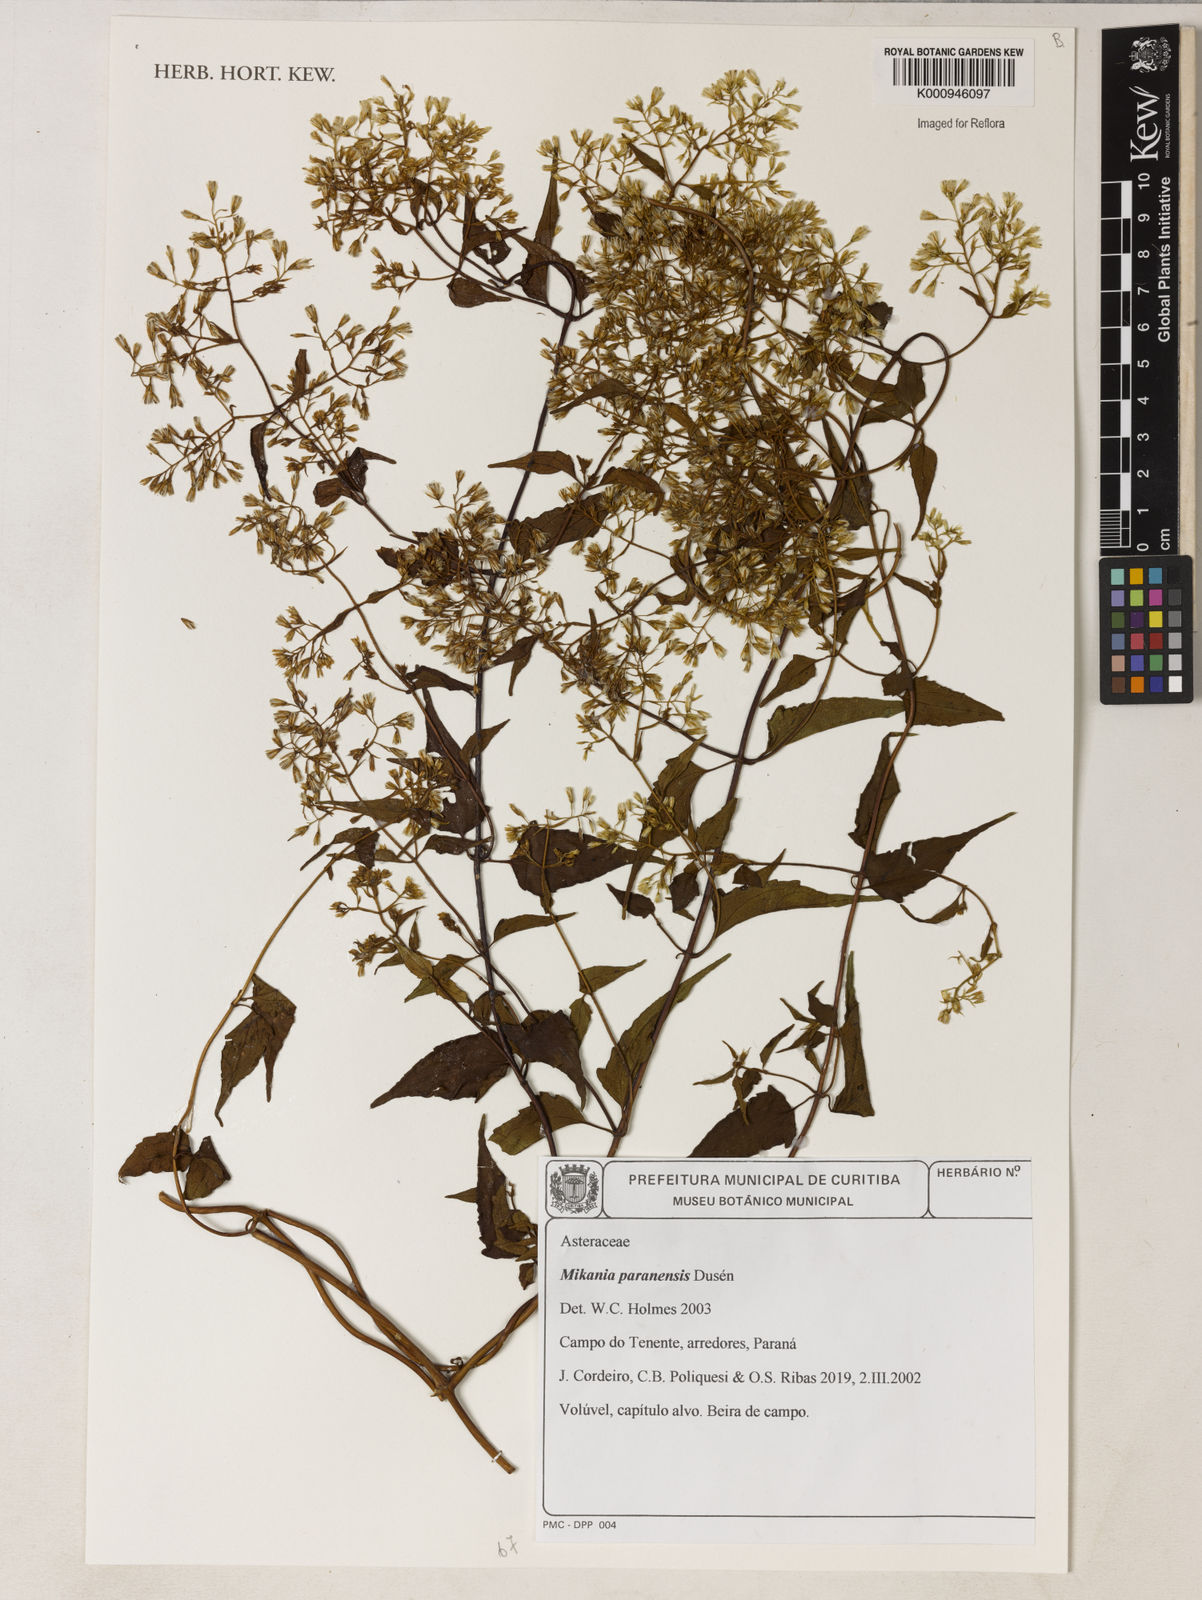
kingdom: Plantae
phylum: Tracheophyta
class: Magnoliopsida
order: Asterales
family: Asteraceae
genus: Mikania
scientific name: Mikania periplocifolia
